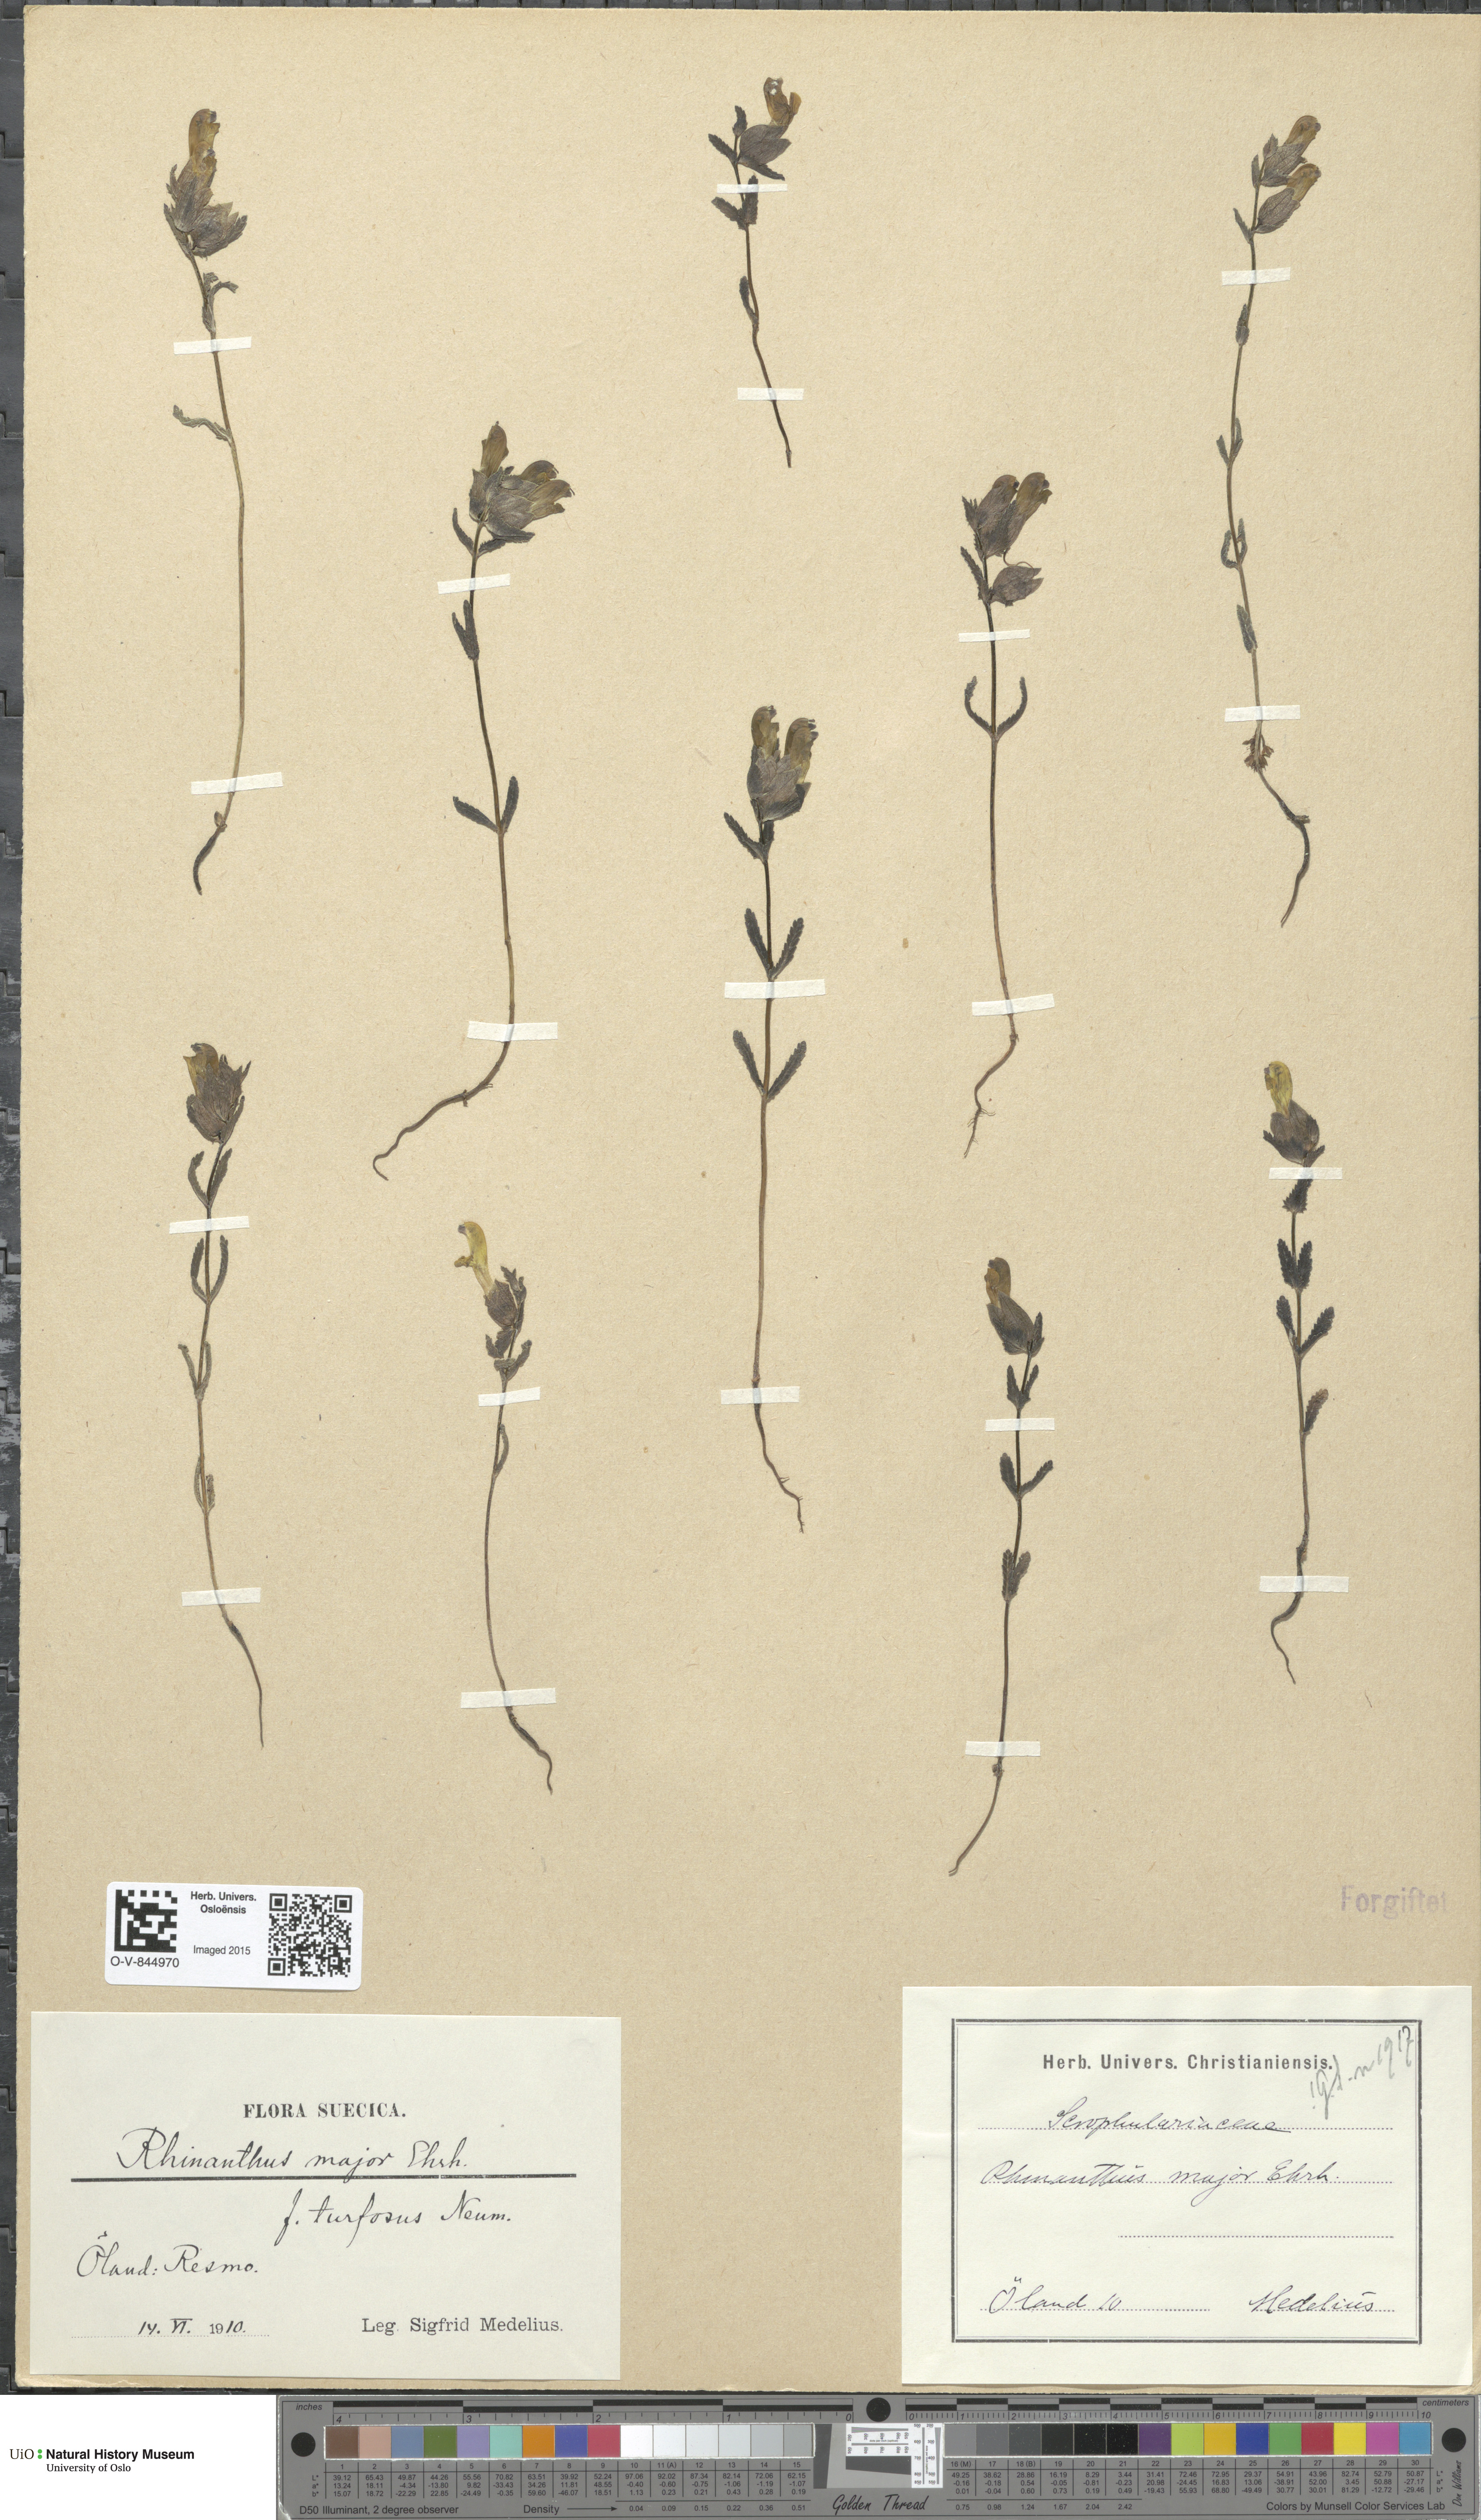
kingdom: Plantae
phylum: Tracheophyta
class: Magnoliopsida
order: Lamiales
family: Orobanchaceae
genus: Rhinanthus
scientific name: Rhinanthus serotinus
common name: Late-flowering yellow rattle
